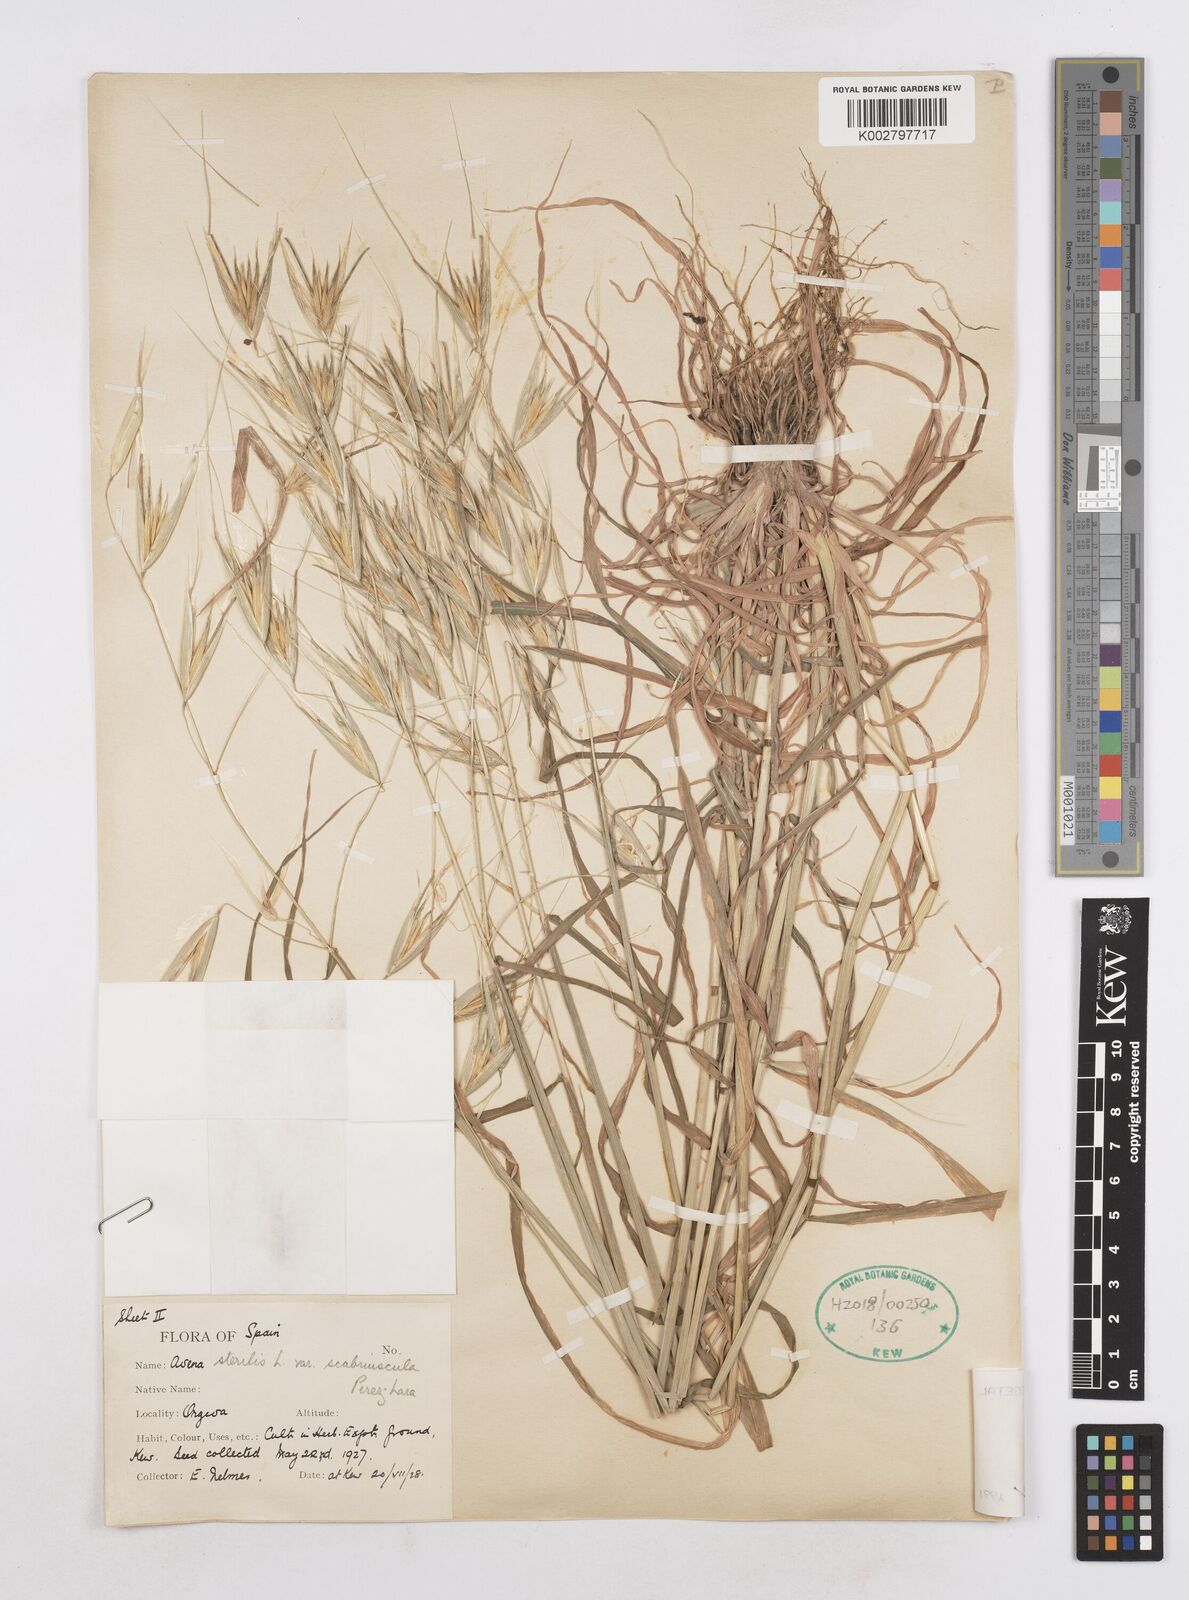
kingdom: Plantae
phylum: Tracheophyta
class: Liliopsida
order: Poales
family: Poaceae
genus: Avena
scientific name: Avena sterilis
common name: Animated oat
